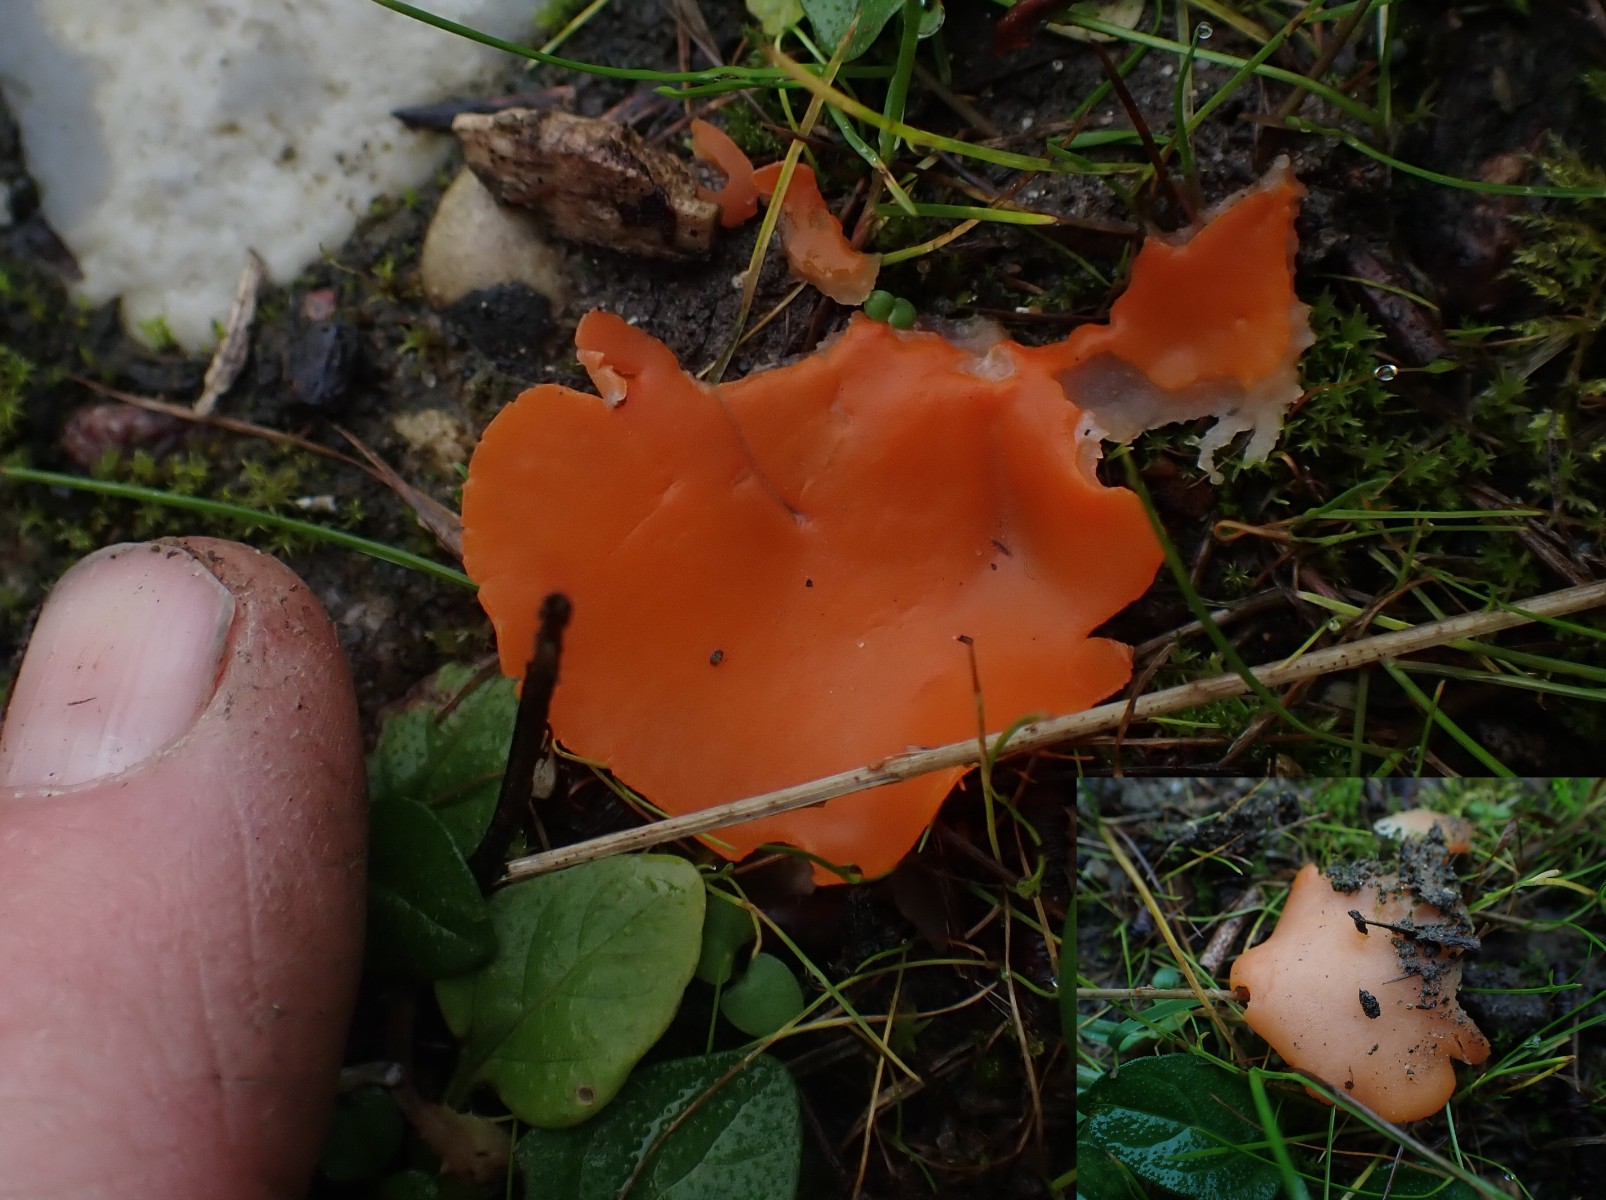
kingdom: Fungi
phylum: Ascomycota
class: Pezizomycetes
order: Pezizales
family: Pyronemataceae
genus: Aleuria
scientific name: Aleuria aurantia
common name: almindelig orangebæger
